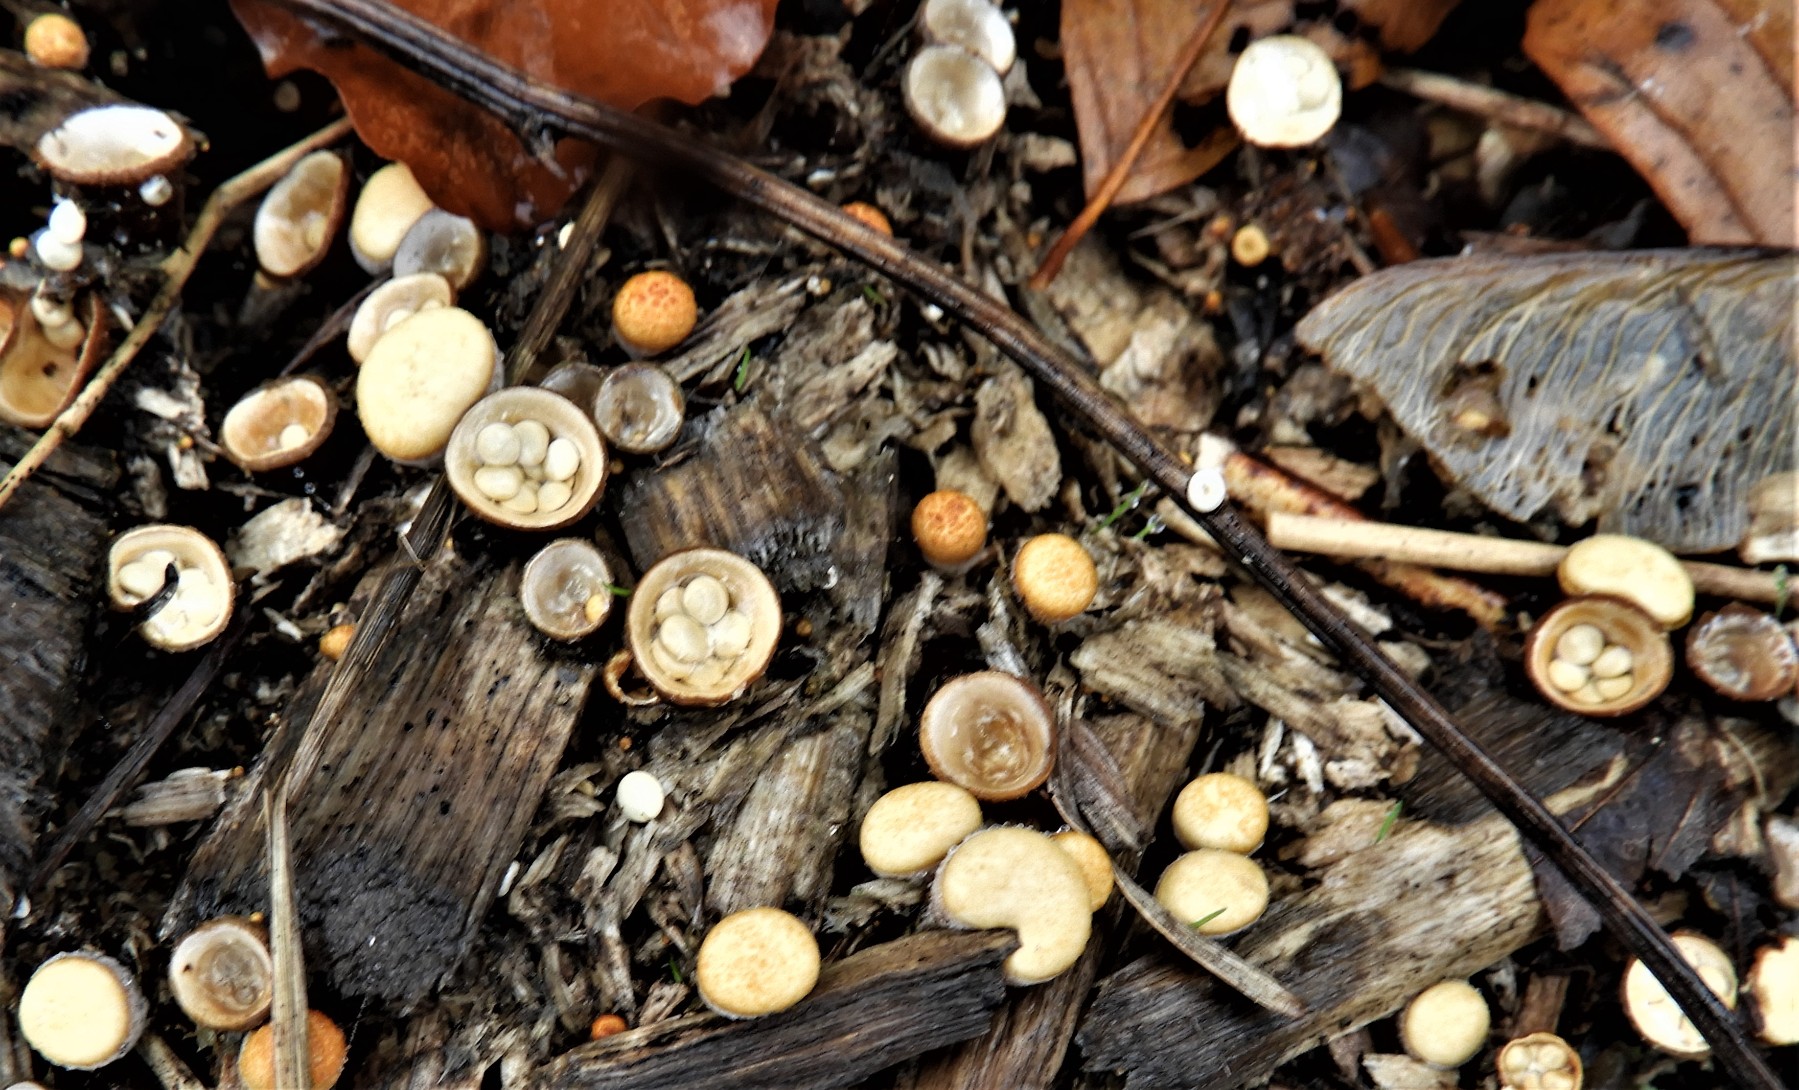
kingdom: Fungi
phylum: Basidiomycota
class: Agaricomycetes
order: Agaricales
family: Nidulariaceae
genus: Crucibulum
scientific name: Crucibulum crucibuliforme
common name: krukkesvamp
